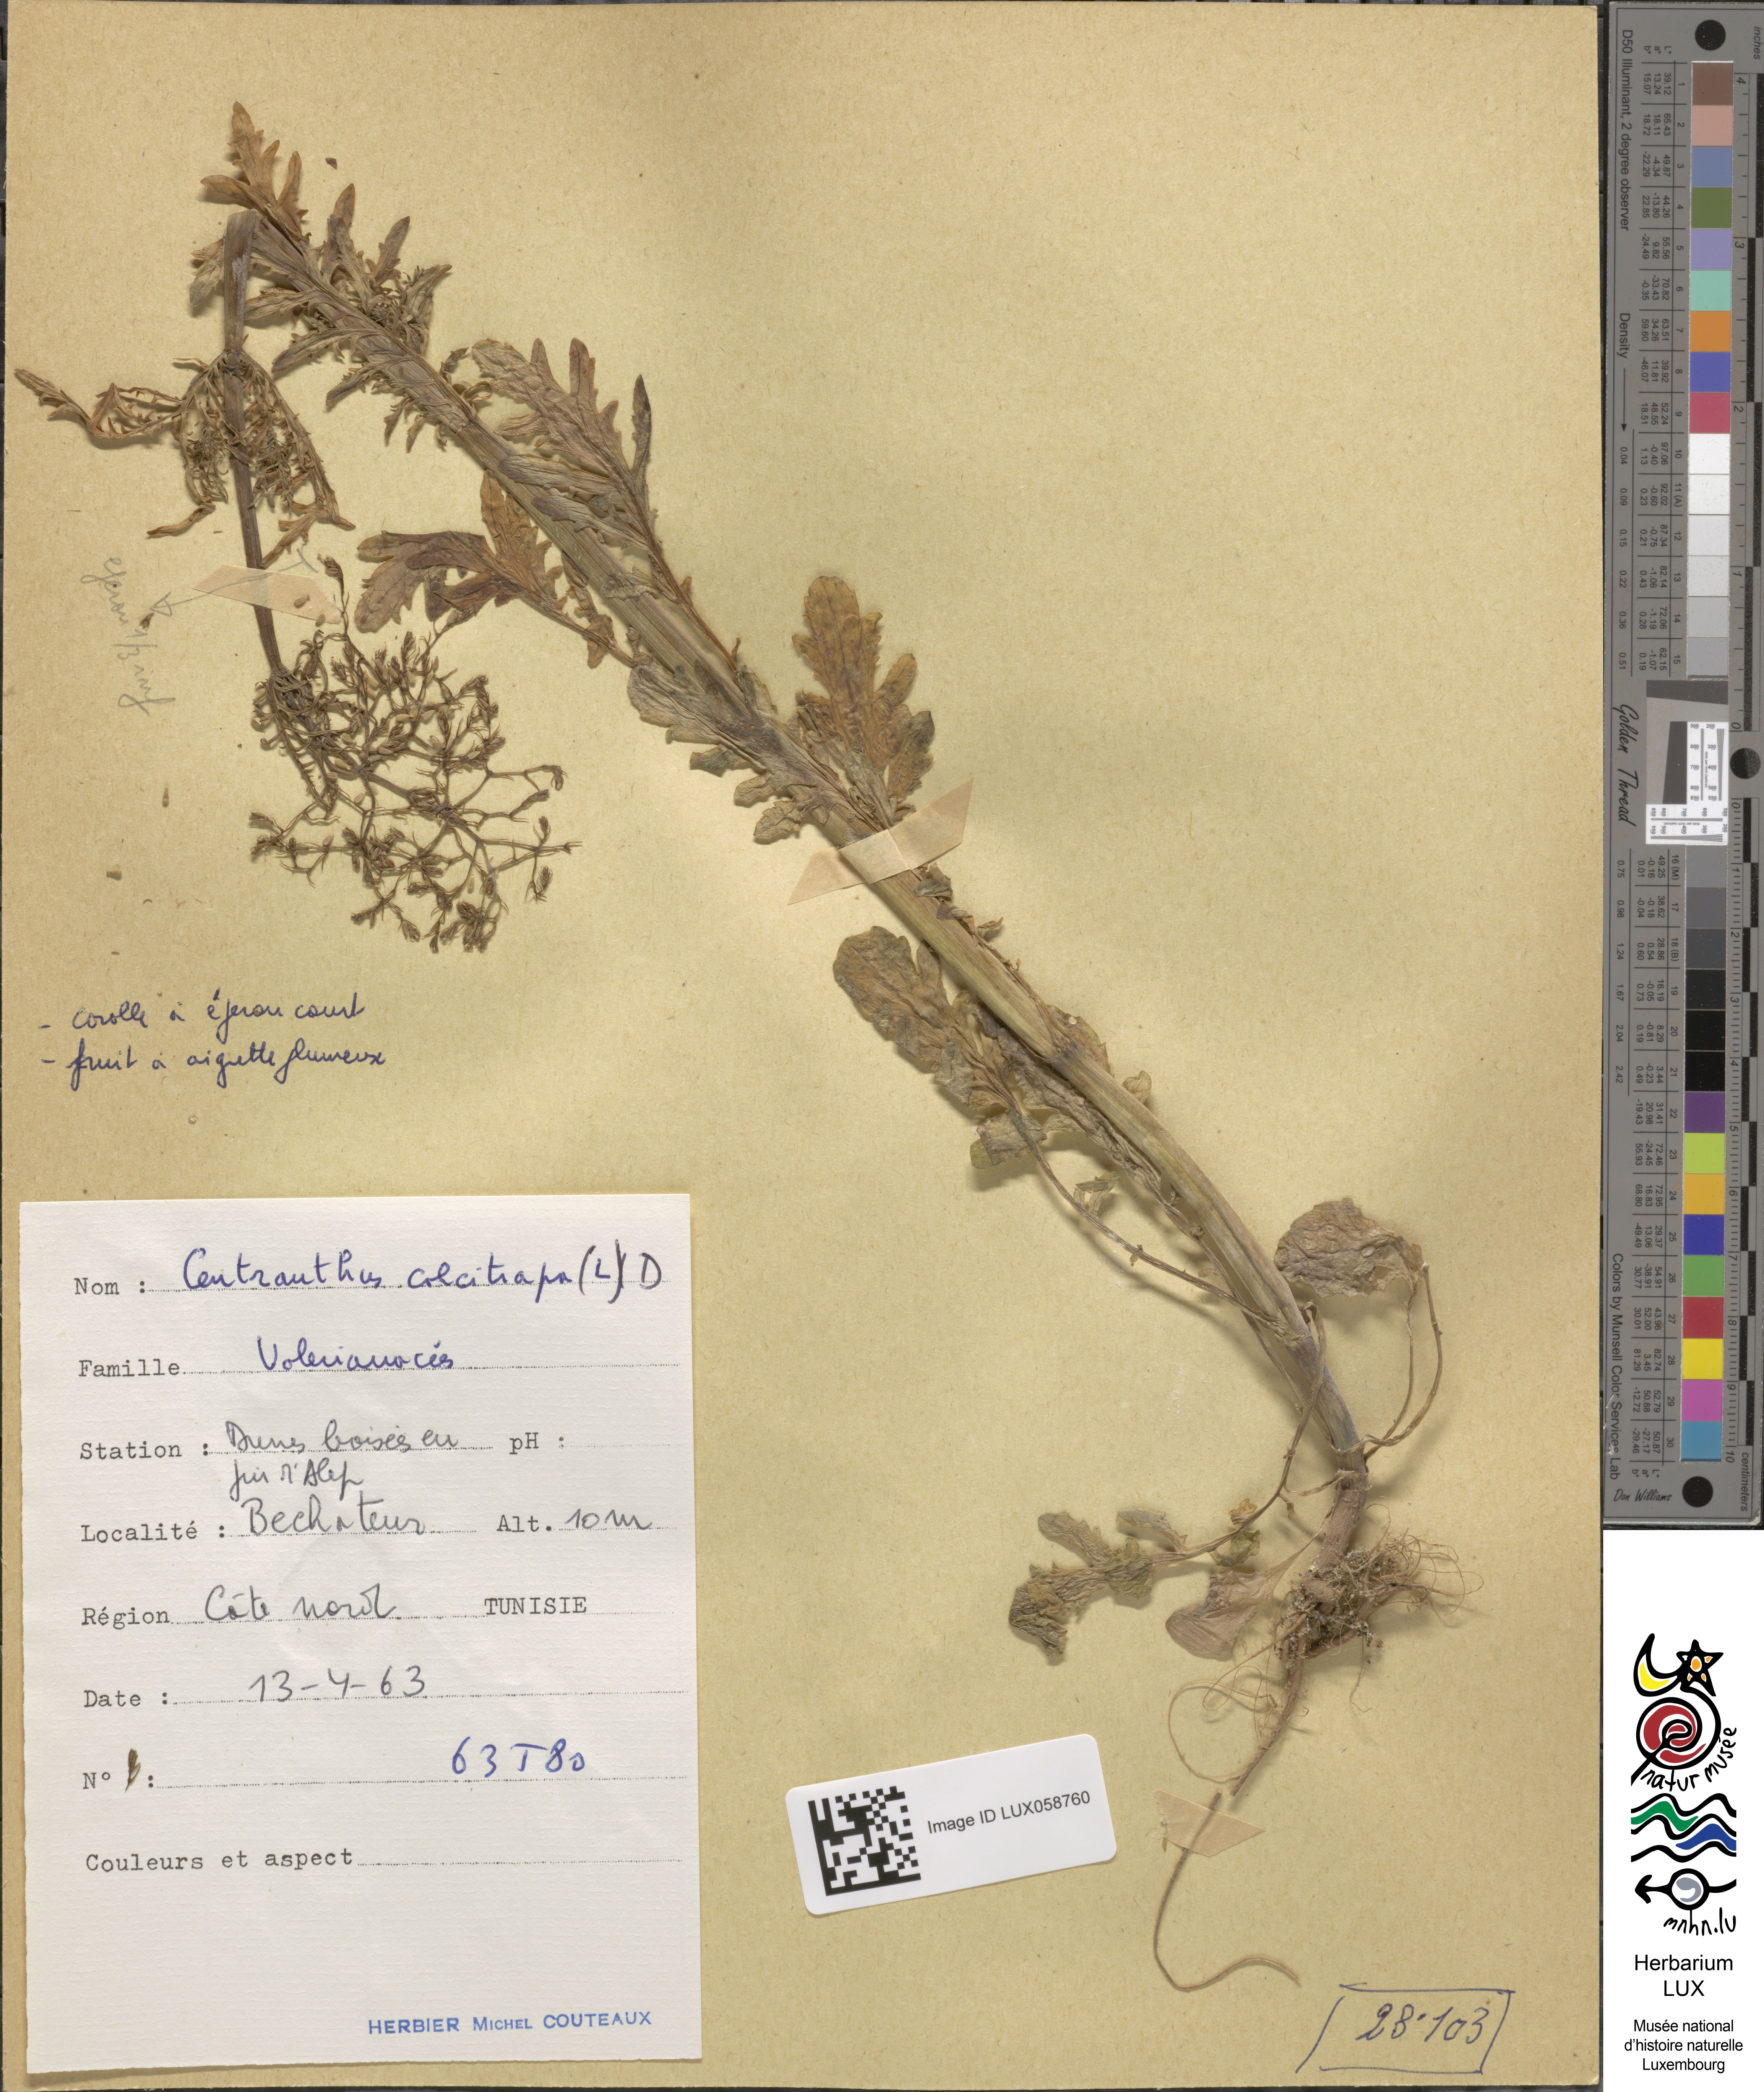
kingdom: Plantae
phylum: Tracheophyta
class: Magnoliopsida
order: Dipsacales
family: Caprifoliaceae
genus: Centranthus
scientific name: Centranthus calcitrapae
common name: Annual valerian
